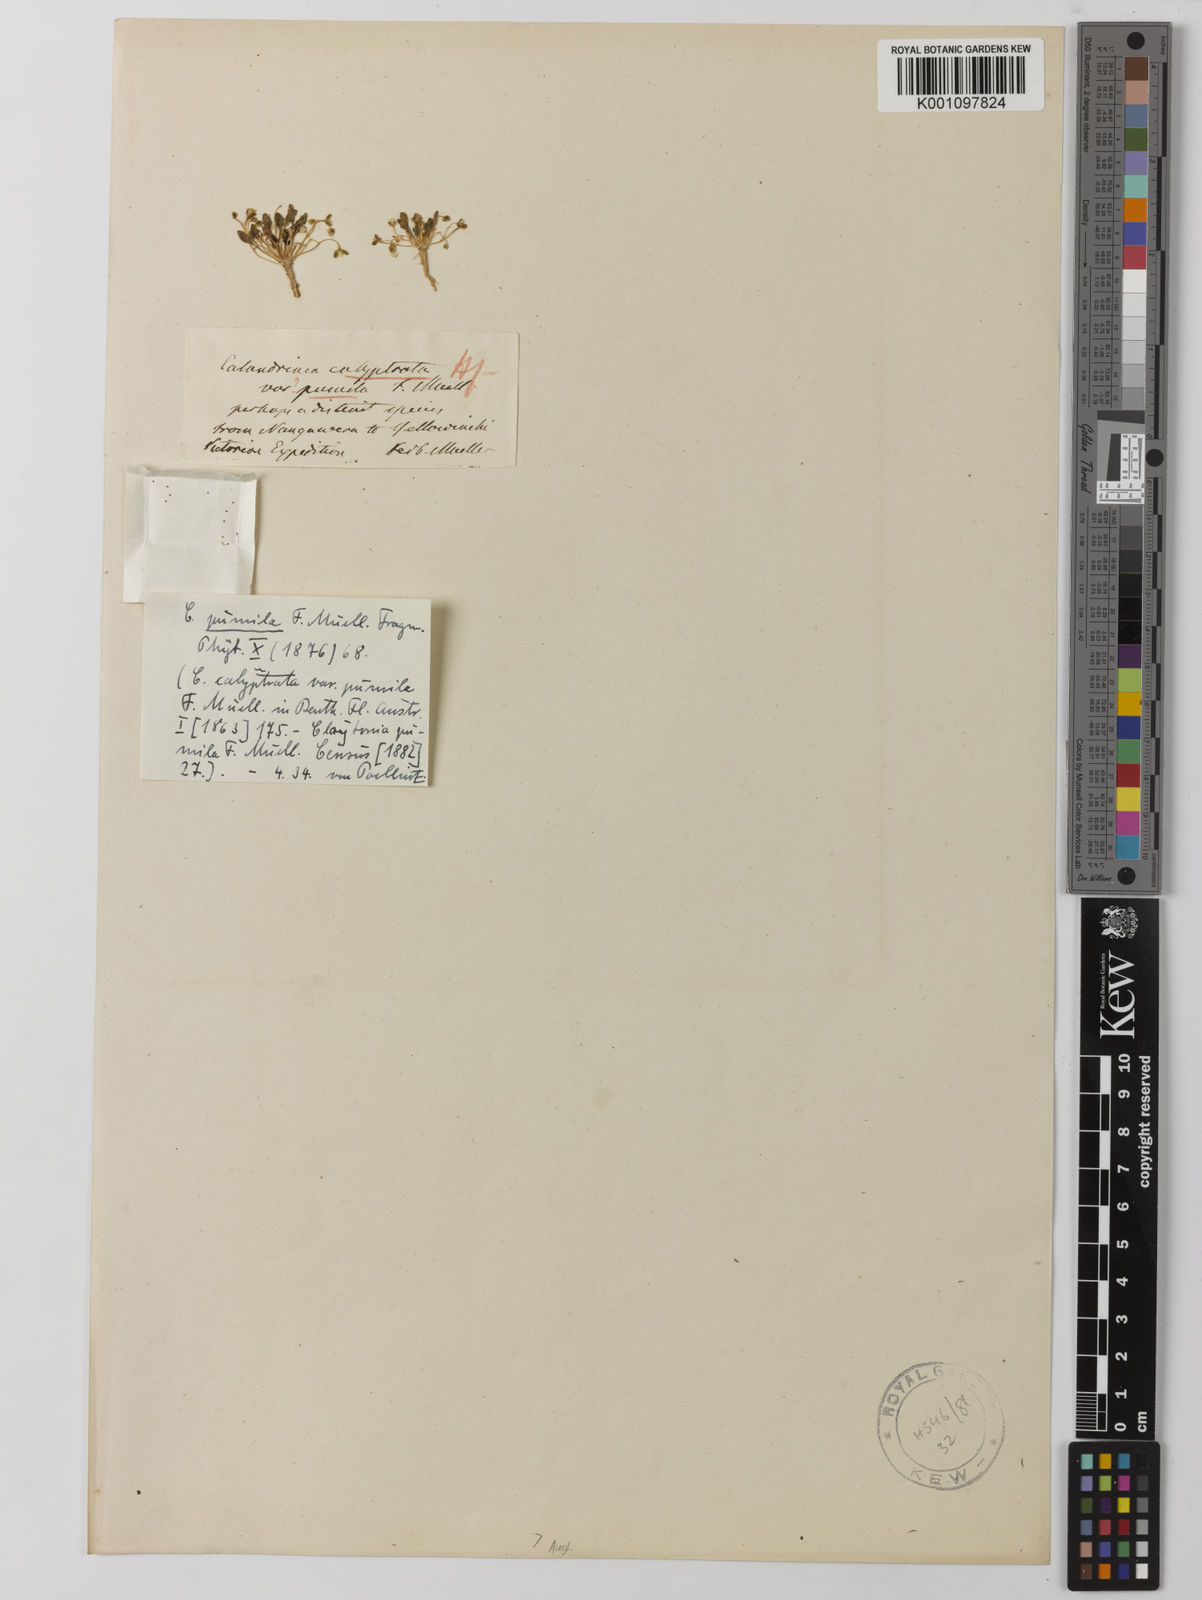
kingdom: Plantae
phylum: Tracheophyta
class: Magnoliopsida
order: Caryophyllales
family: Montiaceae
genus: Rumicastrum
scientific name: Rumicastrum pumilum
